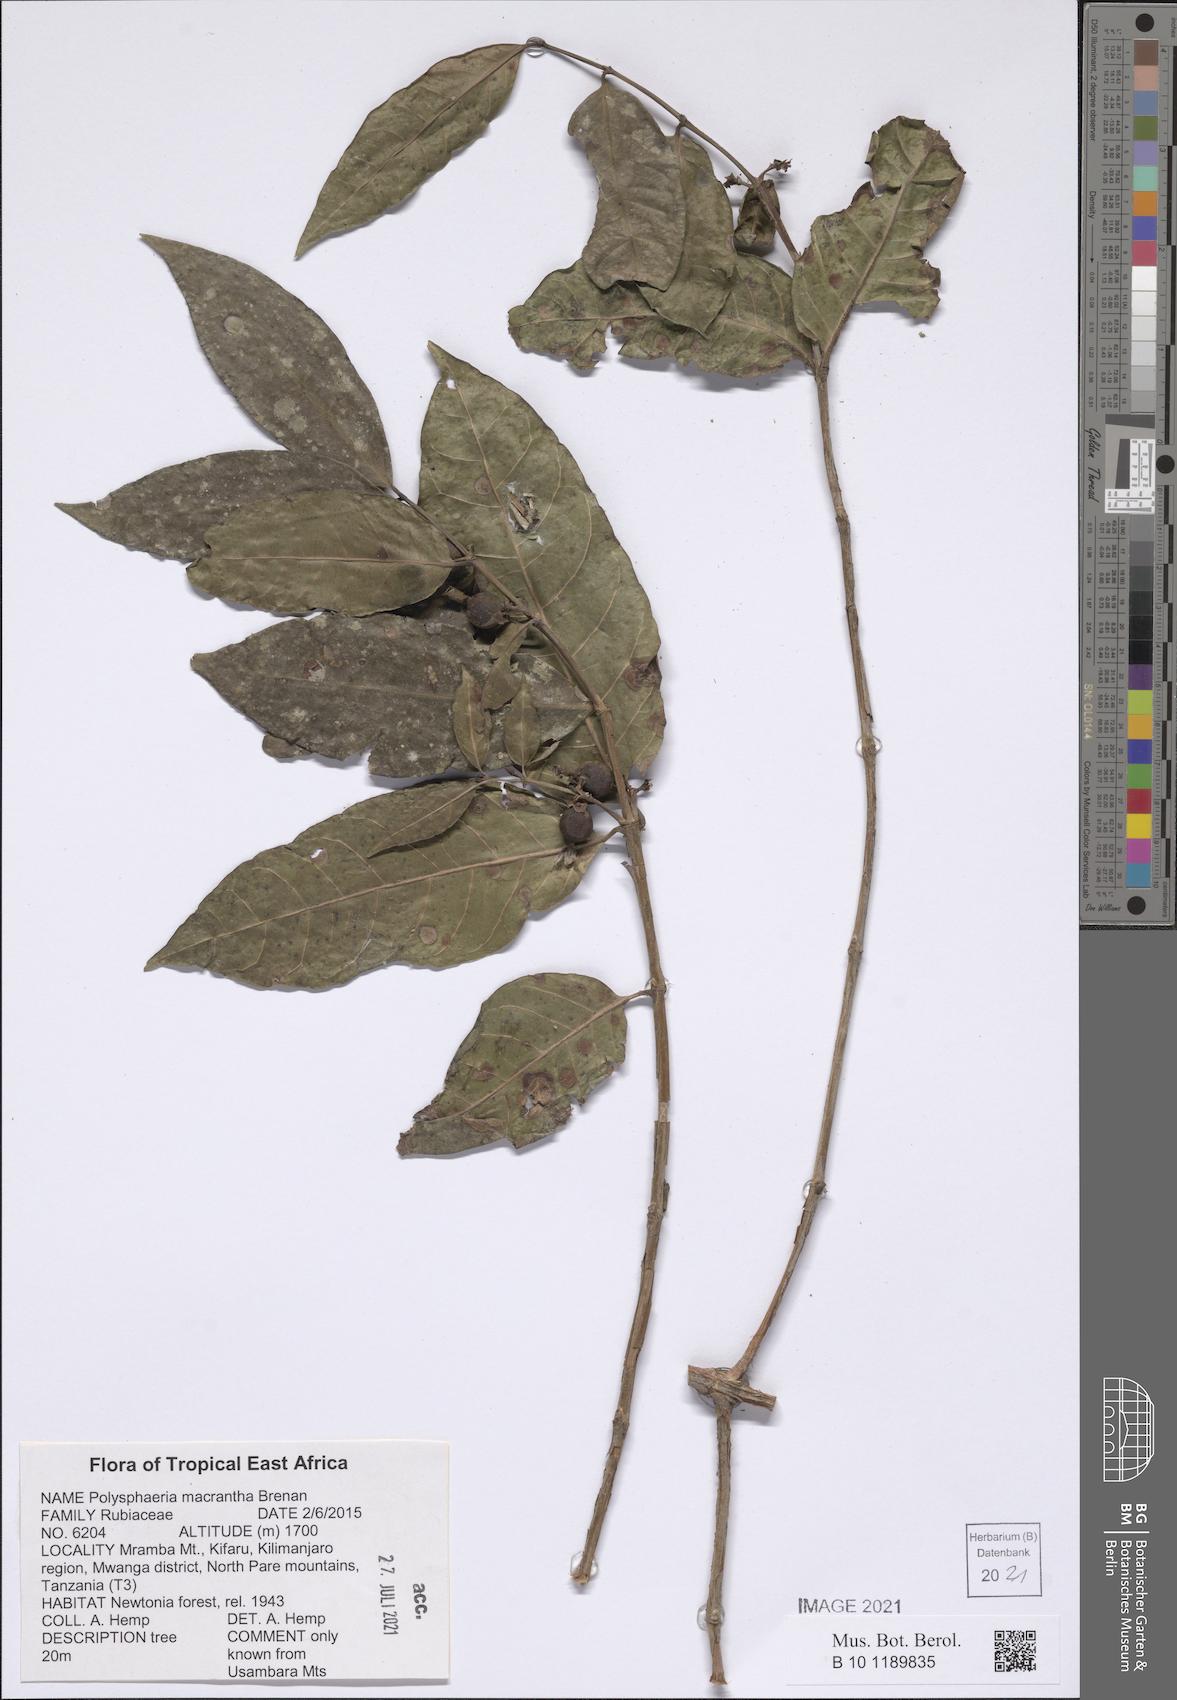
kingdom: Plantae
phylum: Tracheophyta
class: Magnoliopsida
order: Gentianales
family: Rubiaceae
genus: Polysphaeria
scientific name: Polysphaeria macrantha
